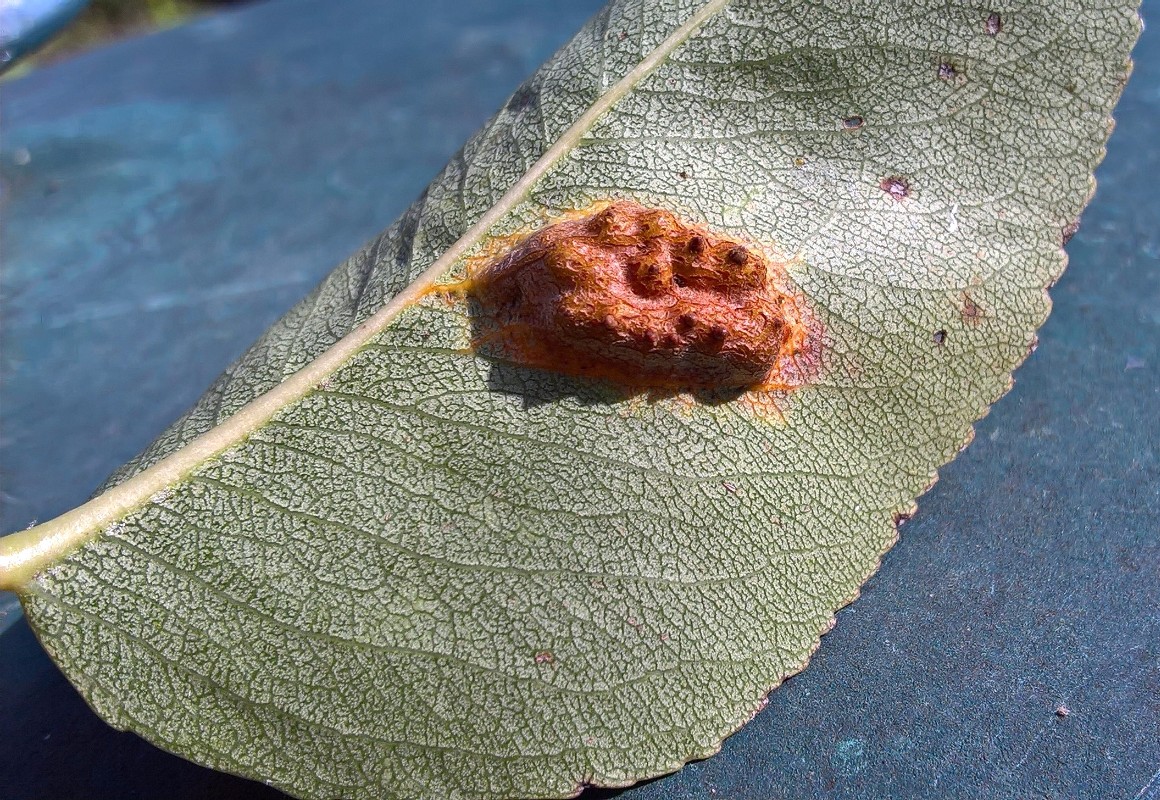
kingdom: Fungi
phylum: Basidiomycota
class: Pucciniomycetes
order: Pucciniales
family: Gymnosporangiaceae
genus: Gymnosporangium
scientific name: Gymnosporangium sabinae
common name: pæregitter-bævrerust
